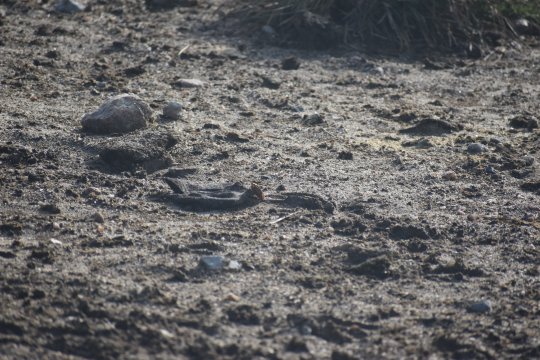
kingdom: Animalia
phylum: Arthropoda
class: Insecta
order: Lepidoptera
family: Nymphalidae
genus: Junonia
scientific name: Junonia coenia
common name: Common Buckeye
